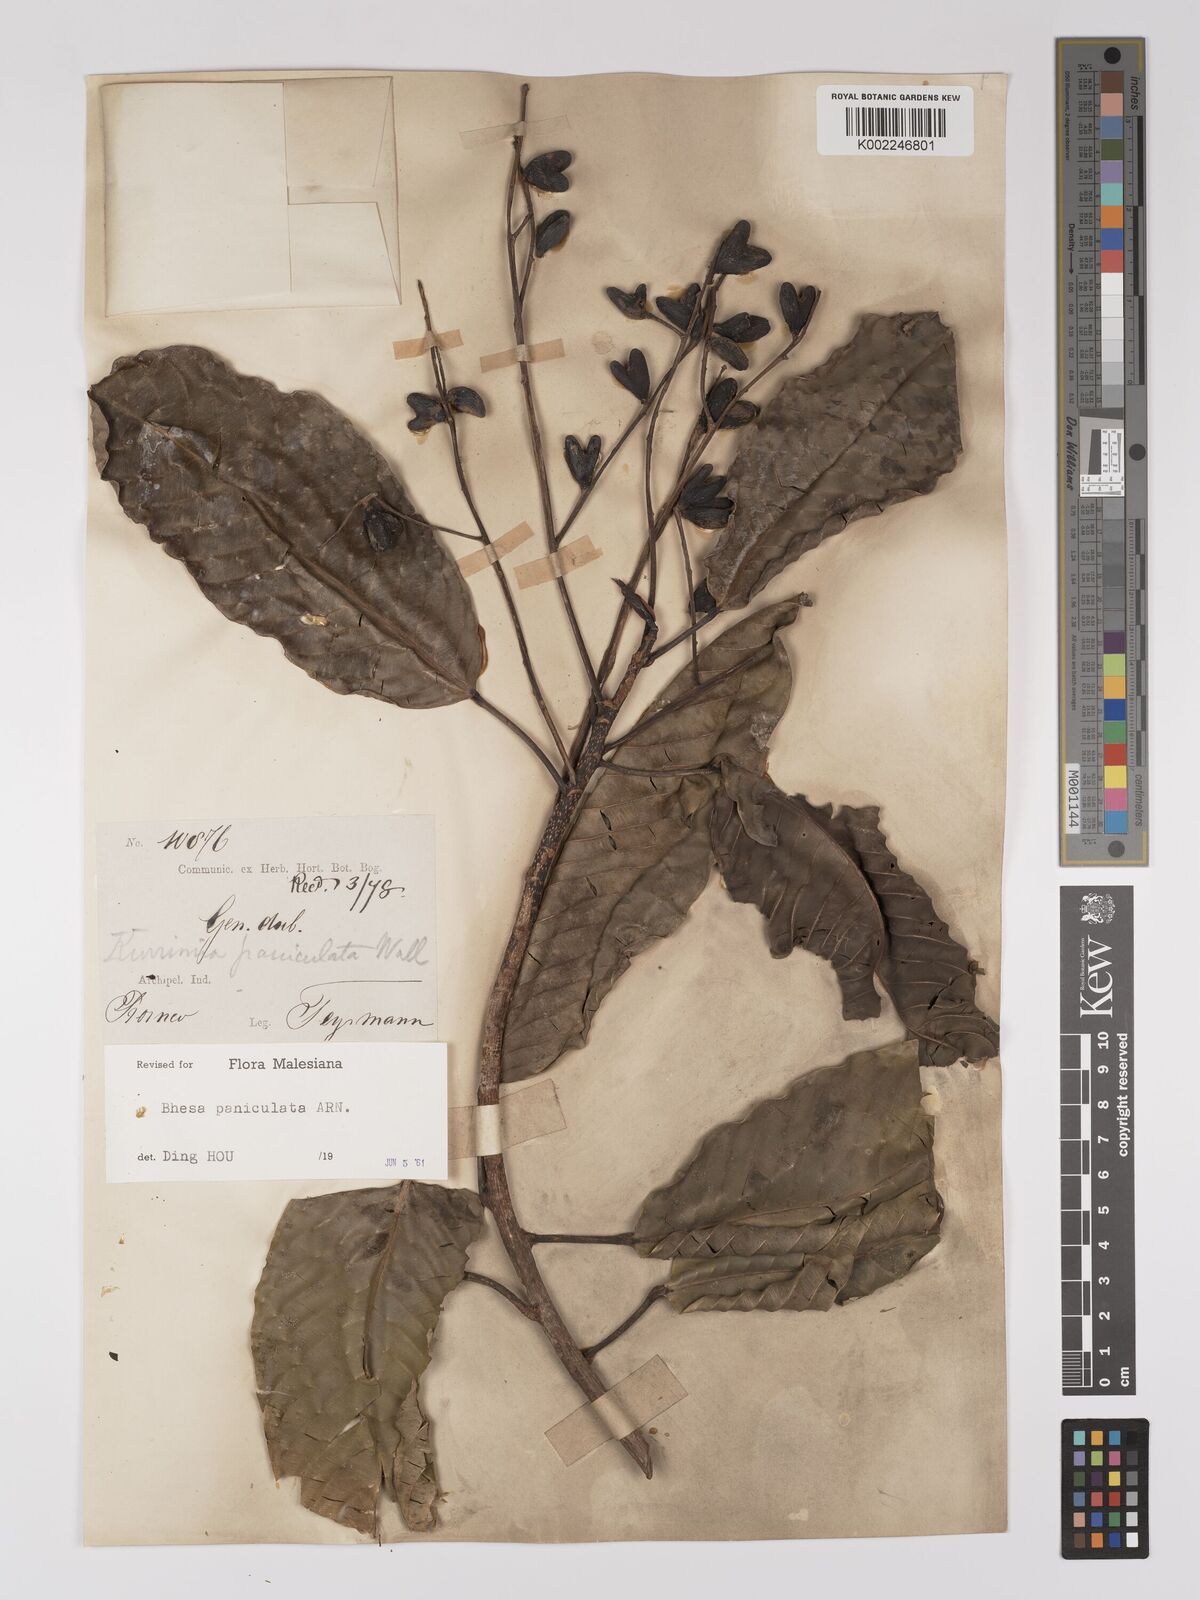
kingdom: Plantae
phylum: Tracheophyta
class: Magnoliopsida
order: Malpighiales
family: Centroplacaceae
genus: Bhesa
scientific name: Bhesa paniculata
